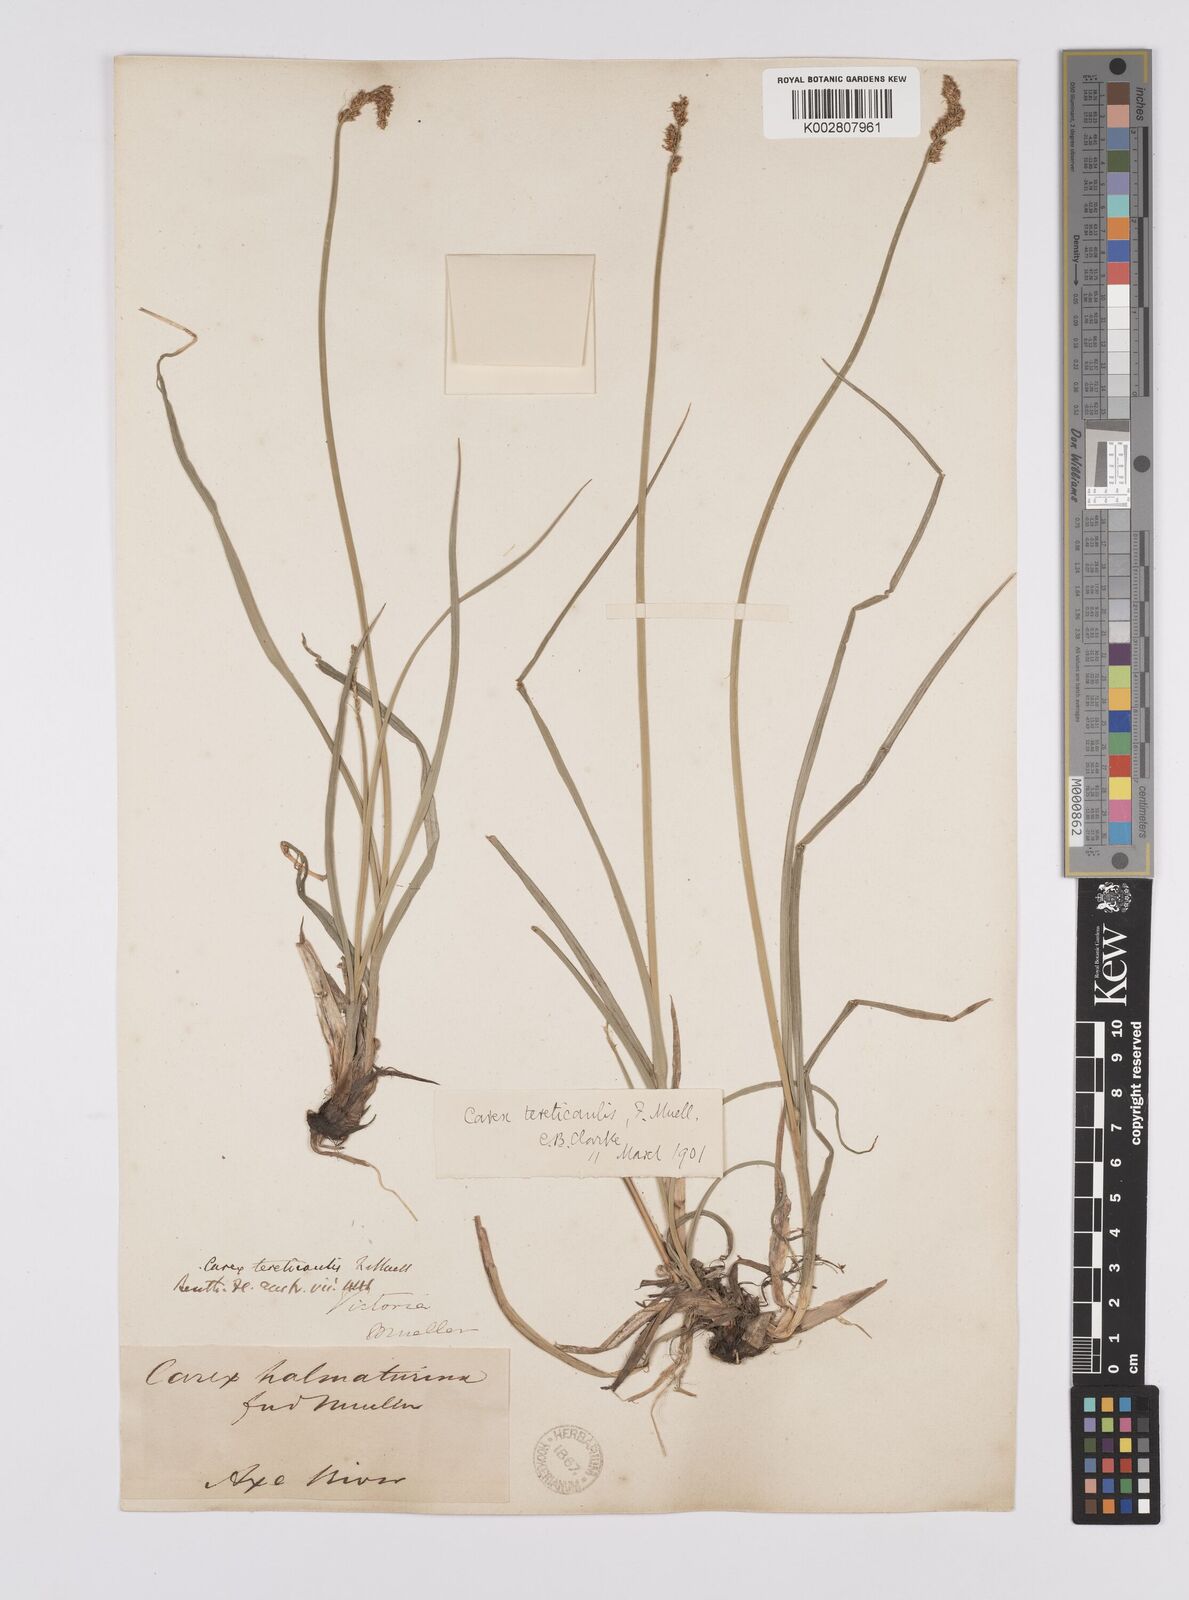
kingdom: Plantae
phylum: Tracheophyta
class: Liliopsida
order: Poales
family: Cyperaceae
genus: Carex
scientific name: Carex tereticaulis
